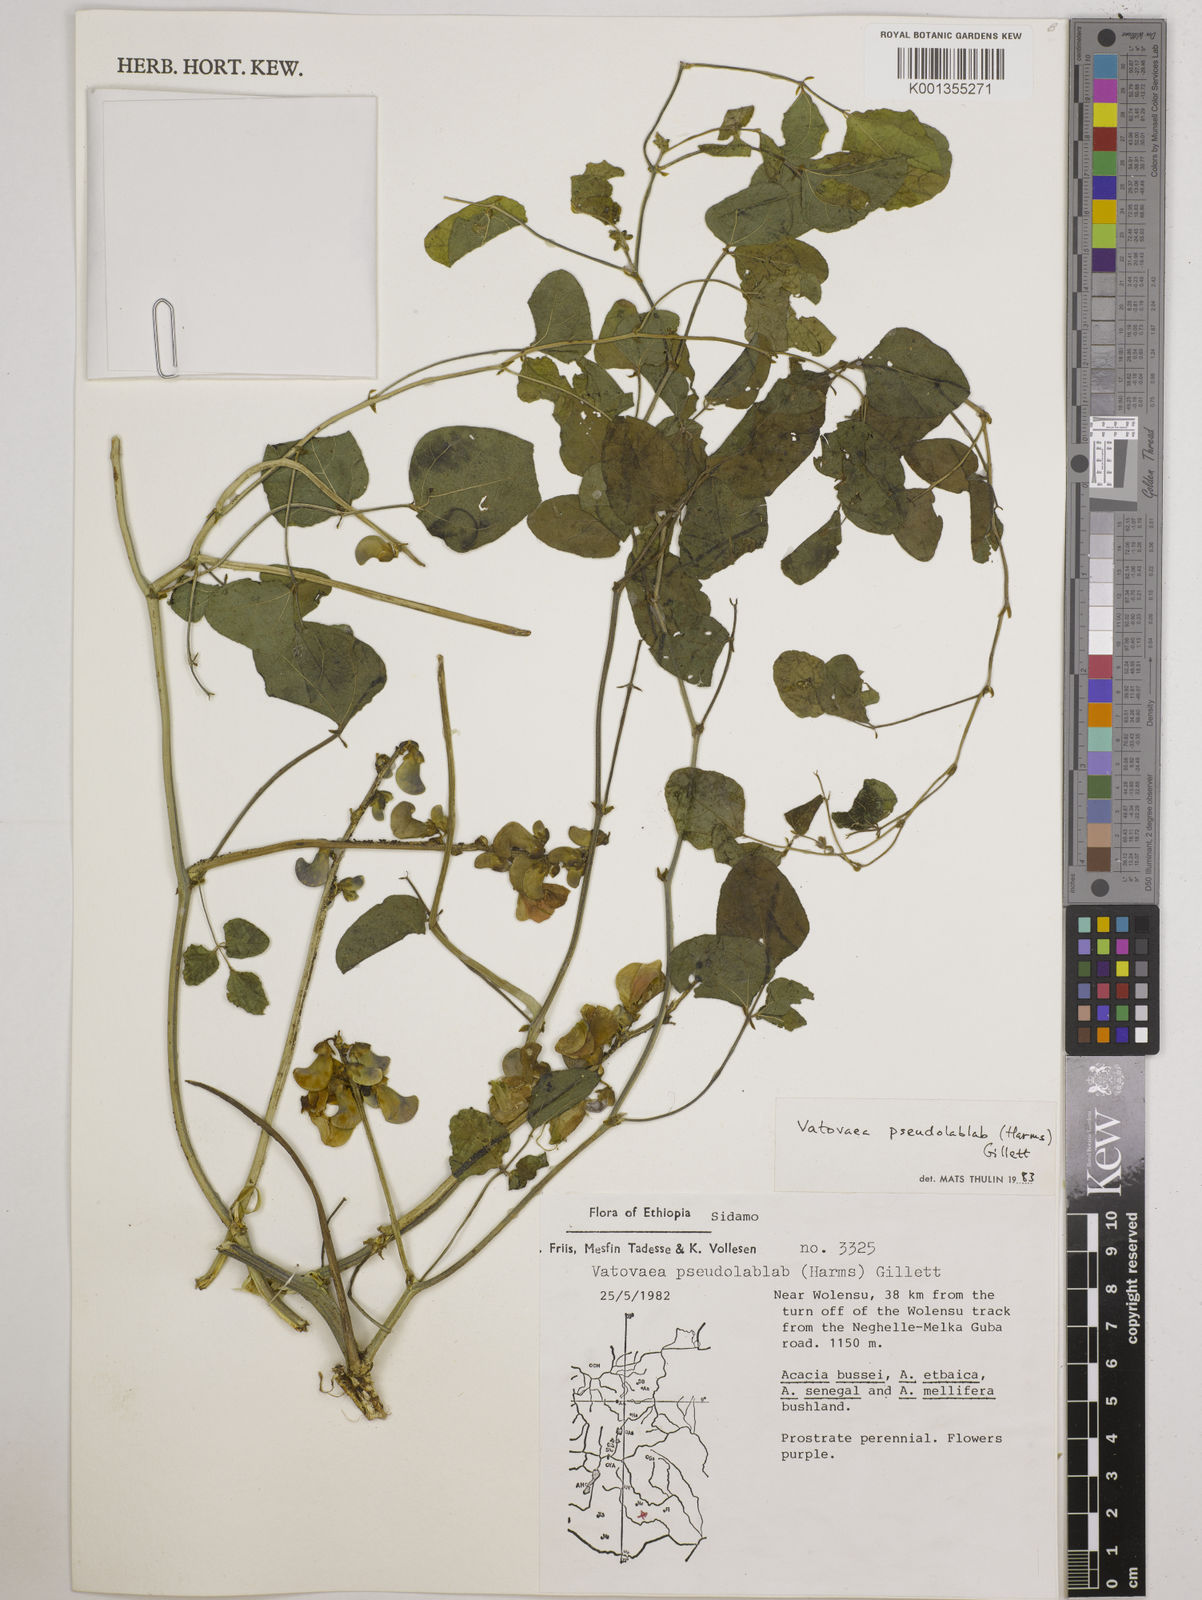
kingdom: Plantae
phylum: Tracheophyta
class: Magnoliopsida
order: Fabales
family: Fabaceae
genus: Vatovaea
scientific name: Vatovaea pseudolablab
